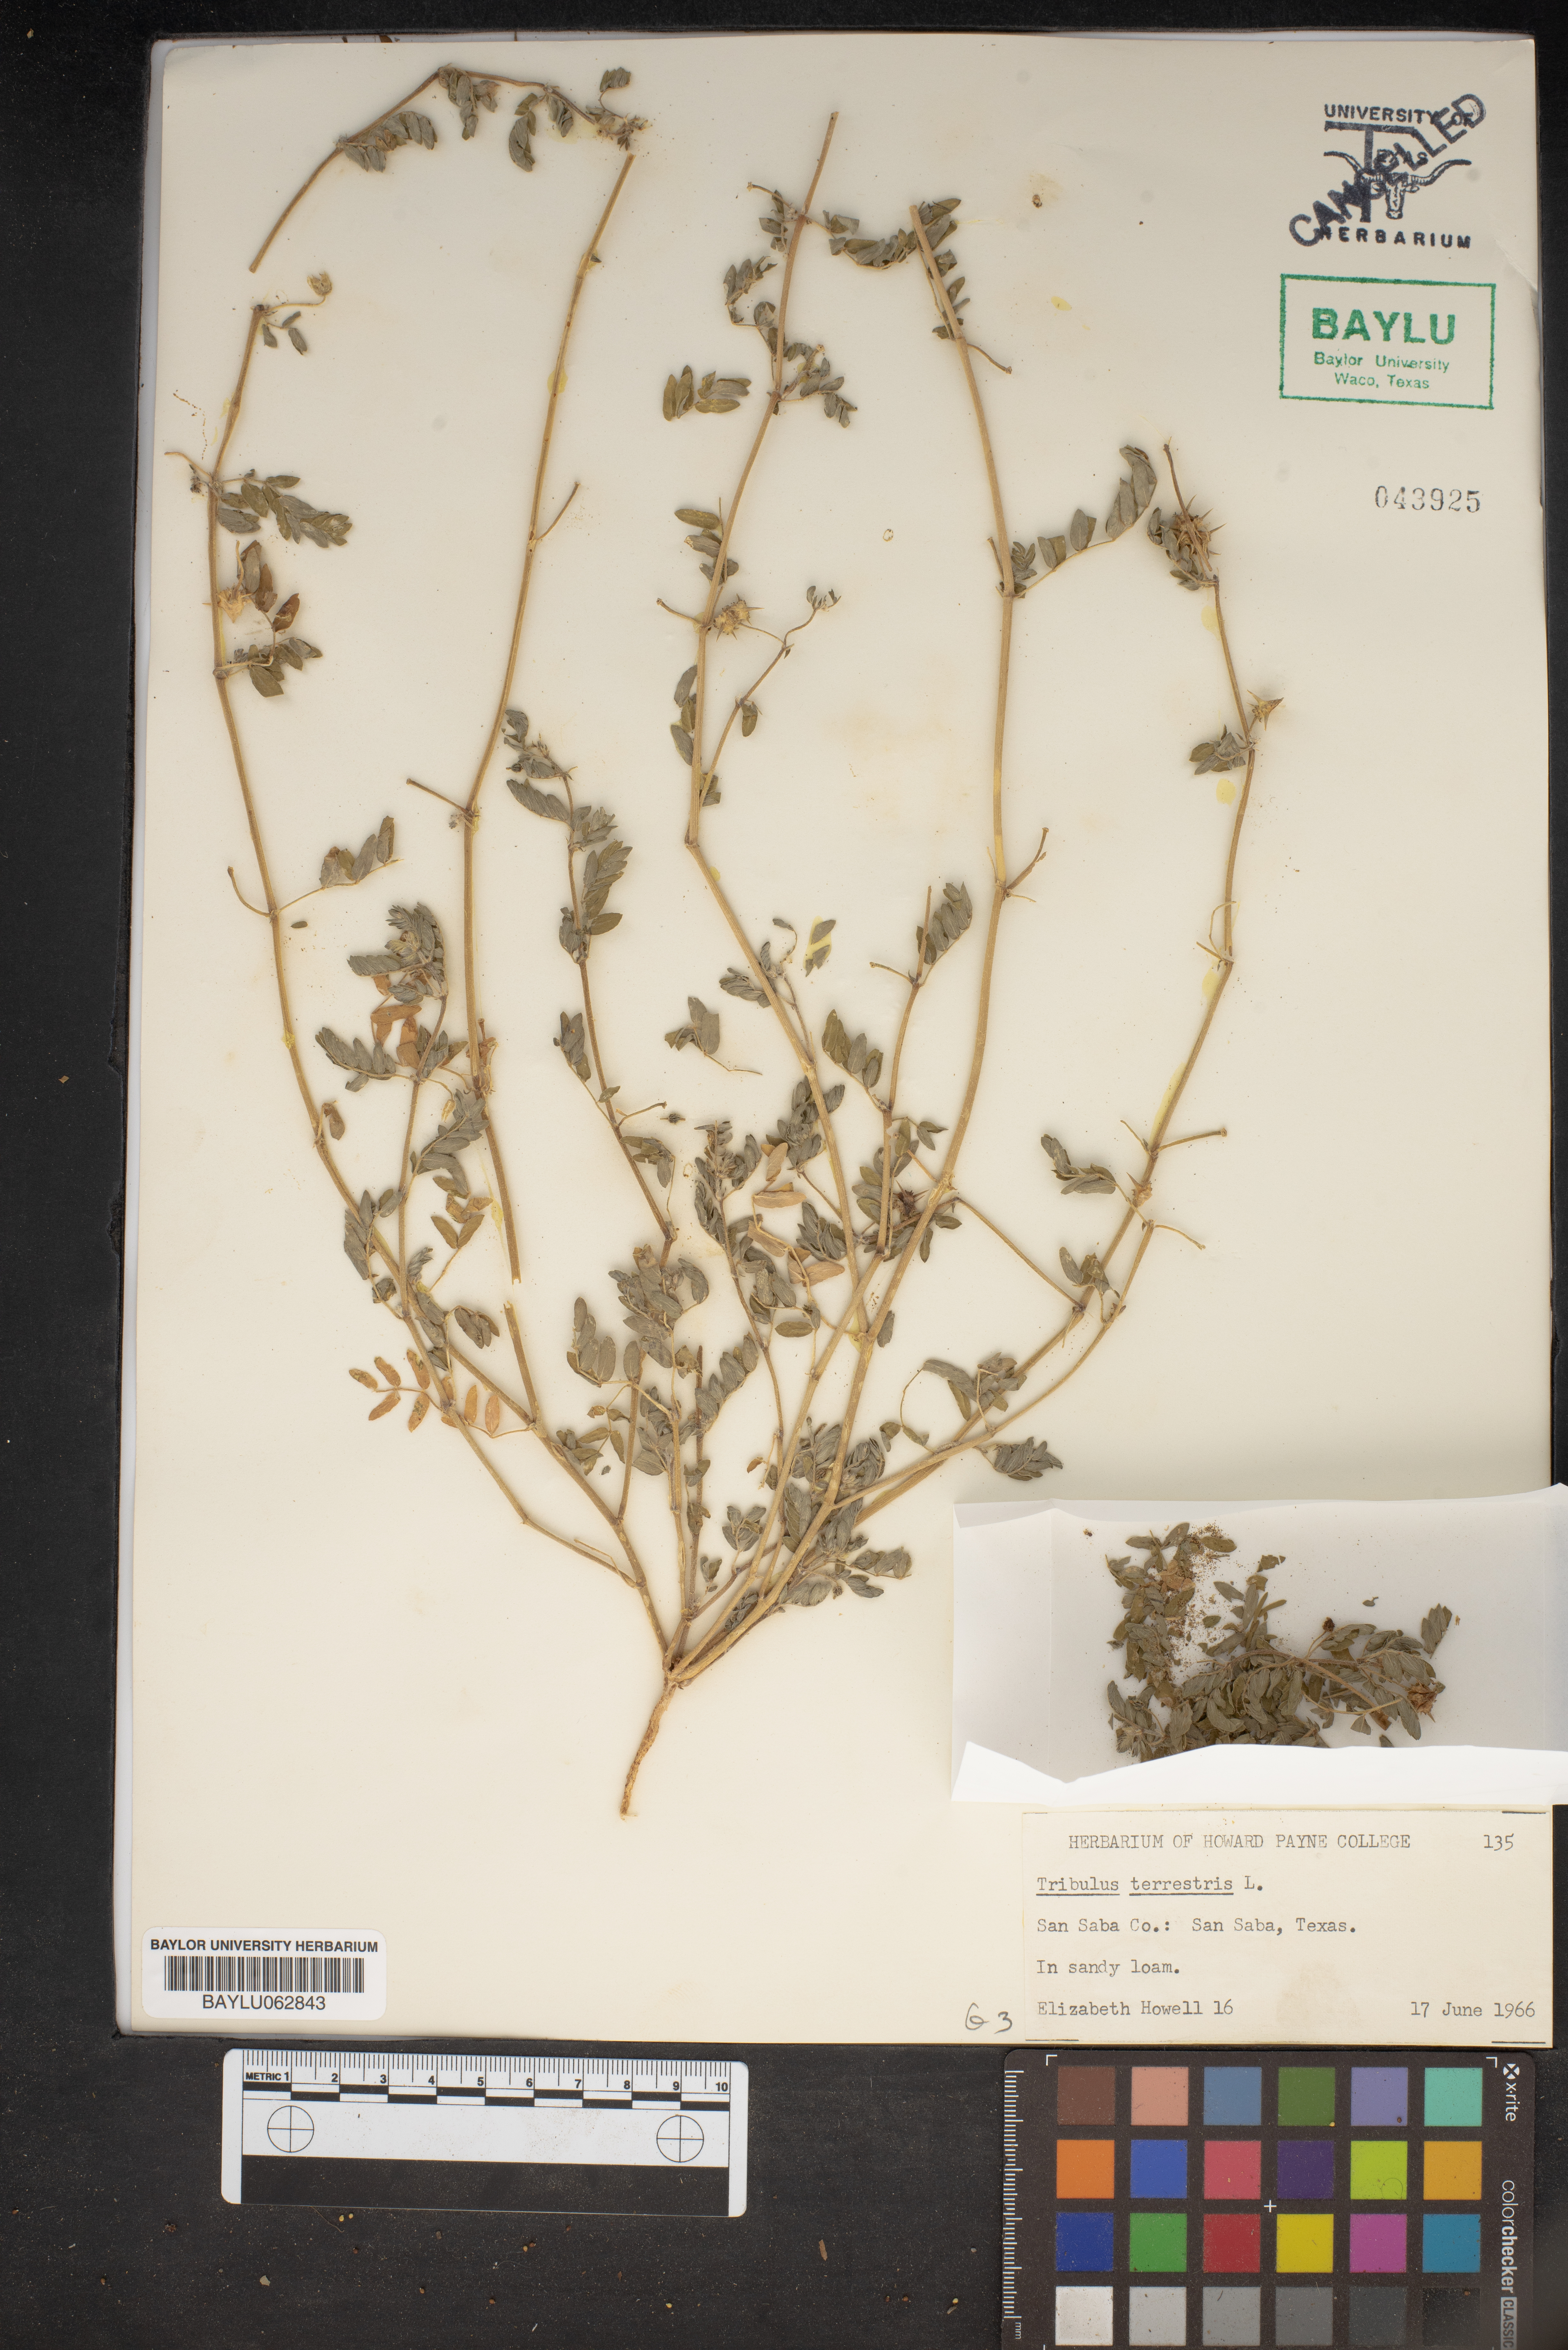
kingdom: Plantae
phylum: Tracheophyta
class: Magnoliopsida
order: Zygophyllales
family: Zygophyllaceae
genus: Tribulus
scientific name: Tribulus terrestris
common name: Puncturevine
